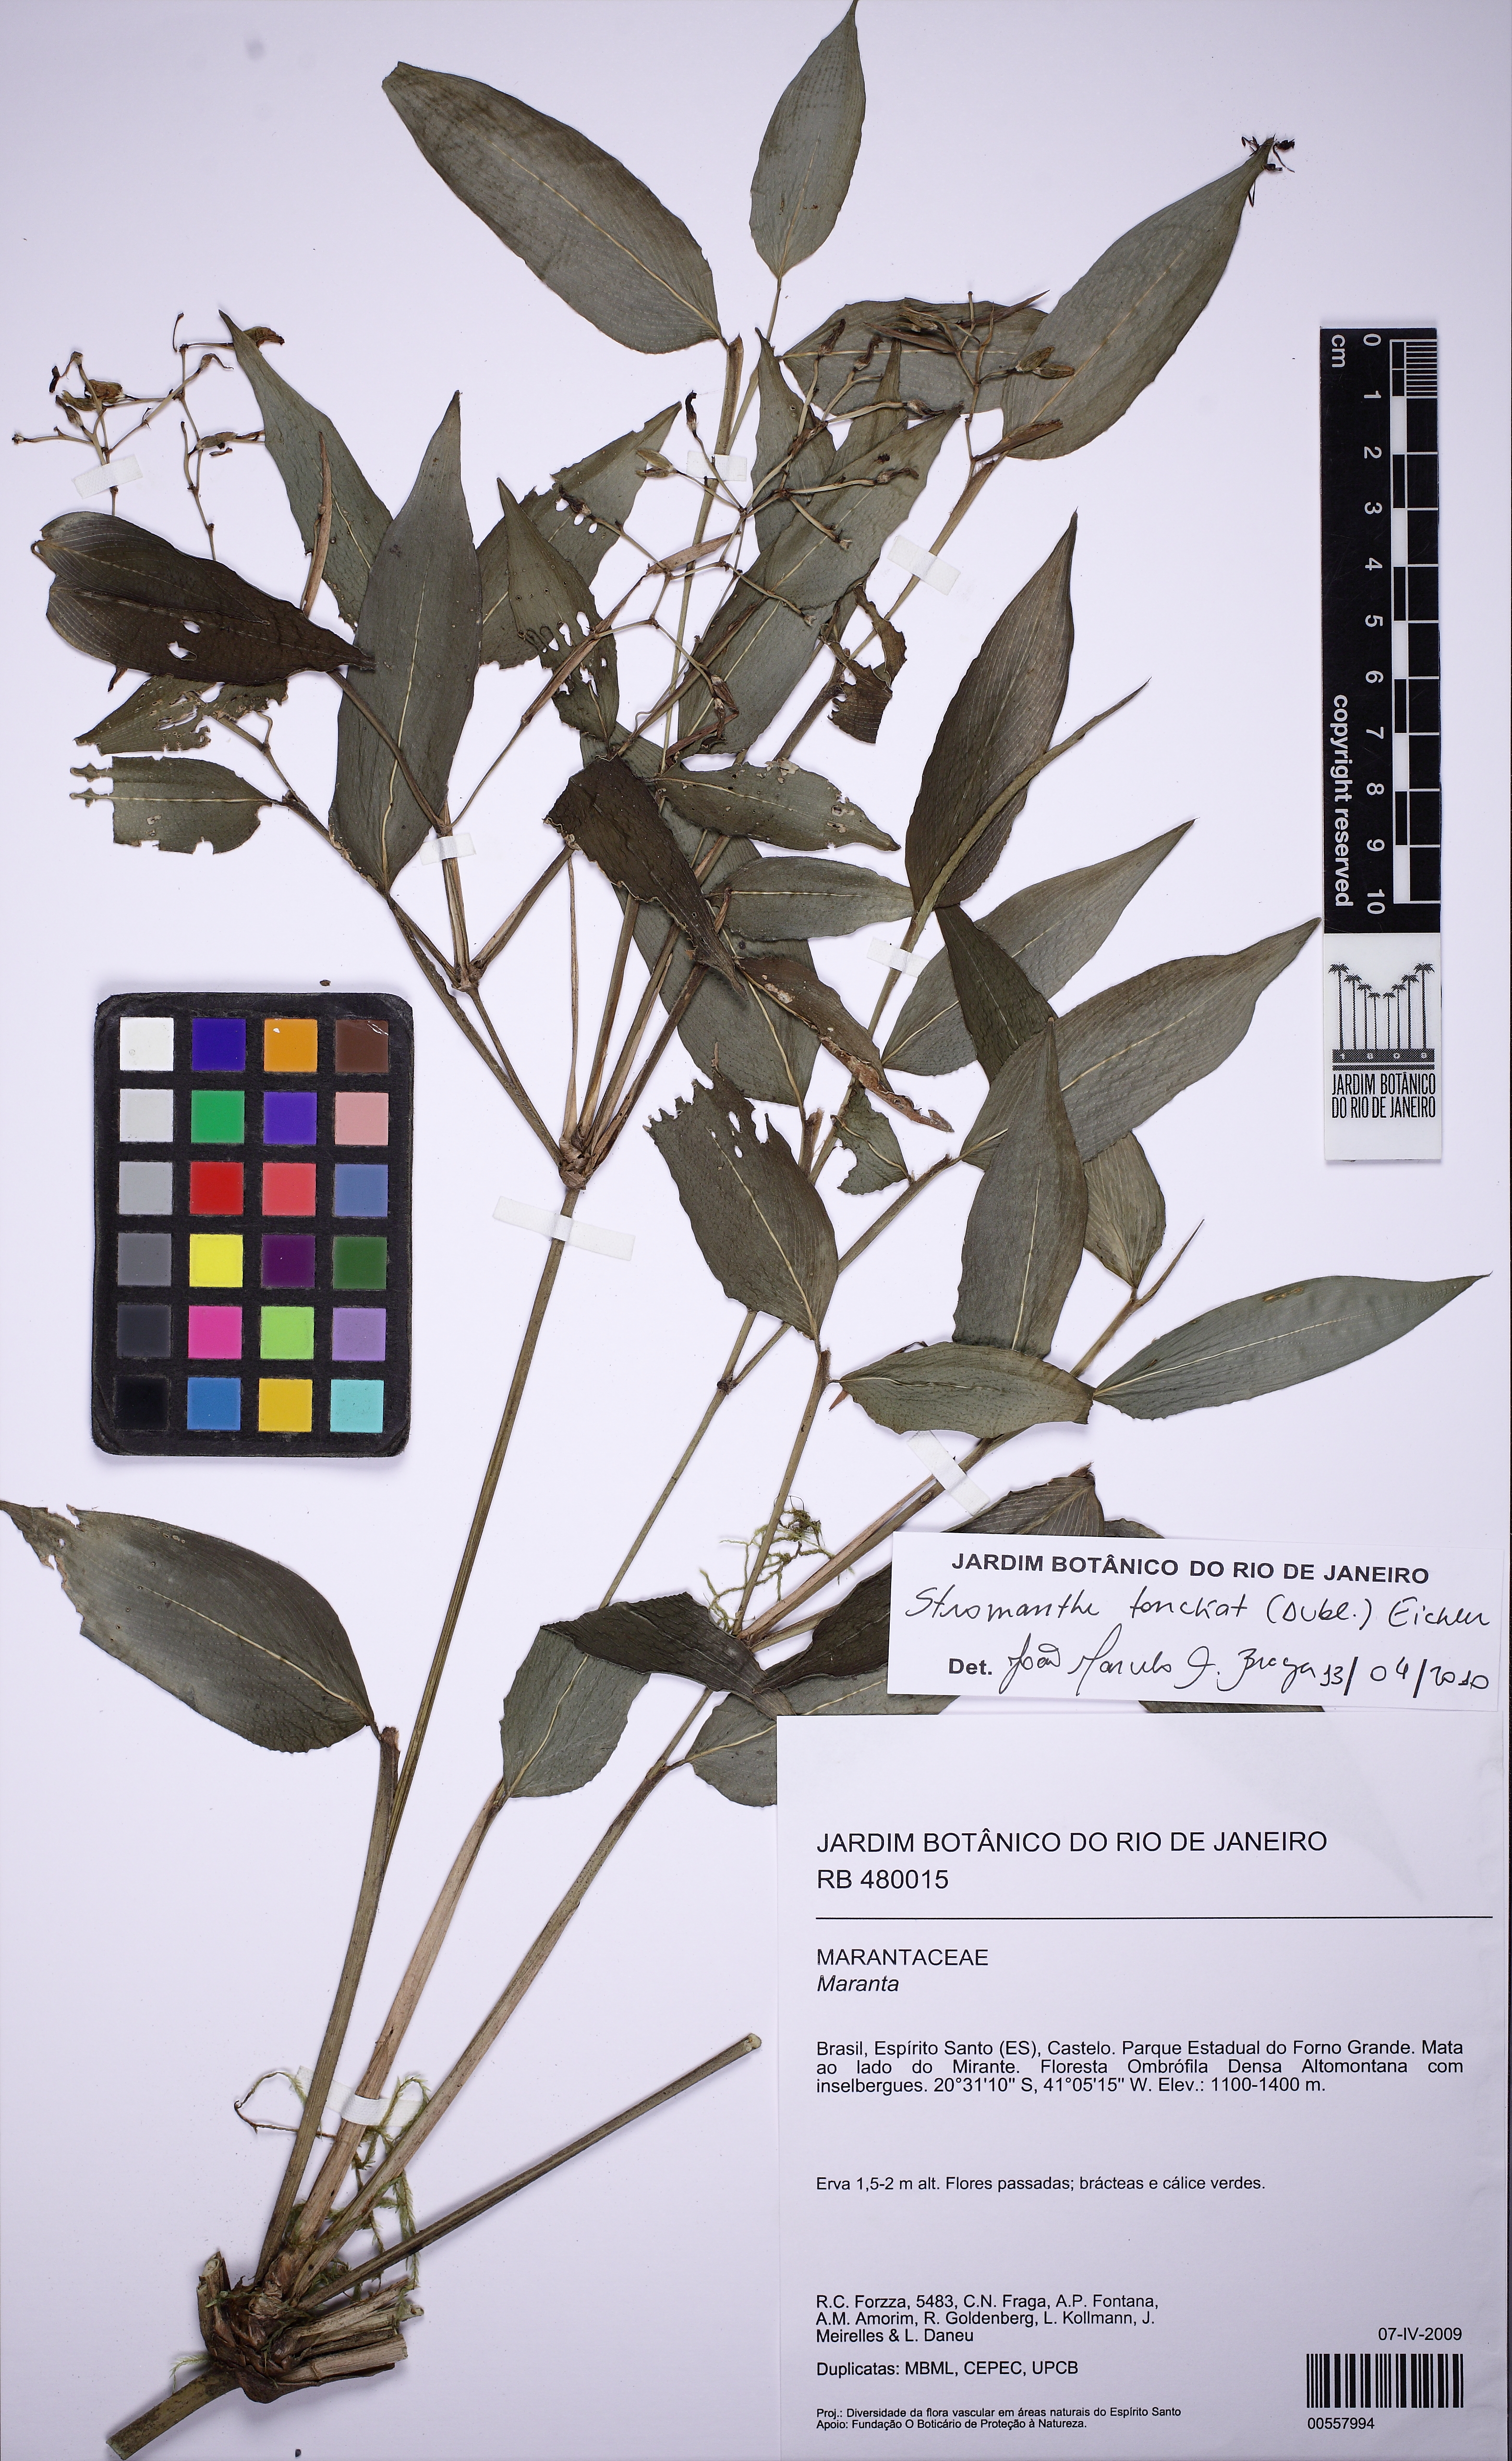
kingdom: Plantae
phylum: Tracheophyta
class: Liliopsida
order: Zingiberales
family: Marantaceae
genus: Stromanthe
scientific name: Stromanthe tonckat
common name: Stromanthe
